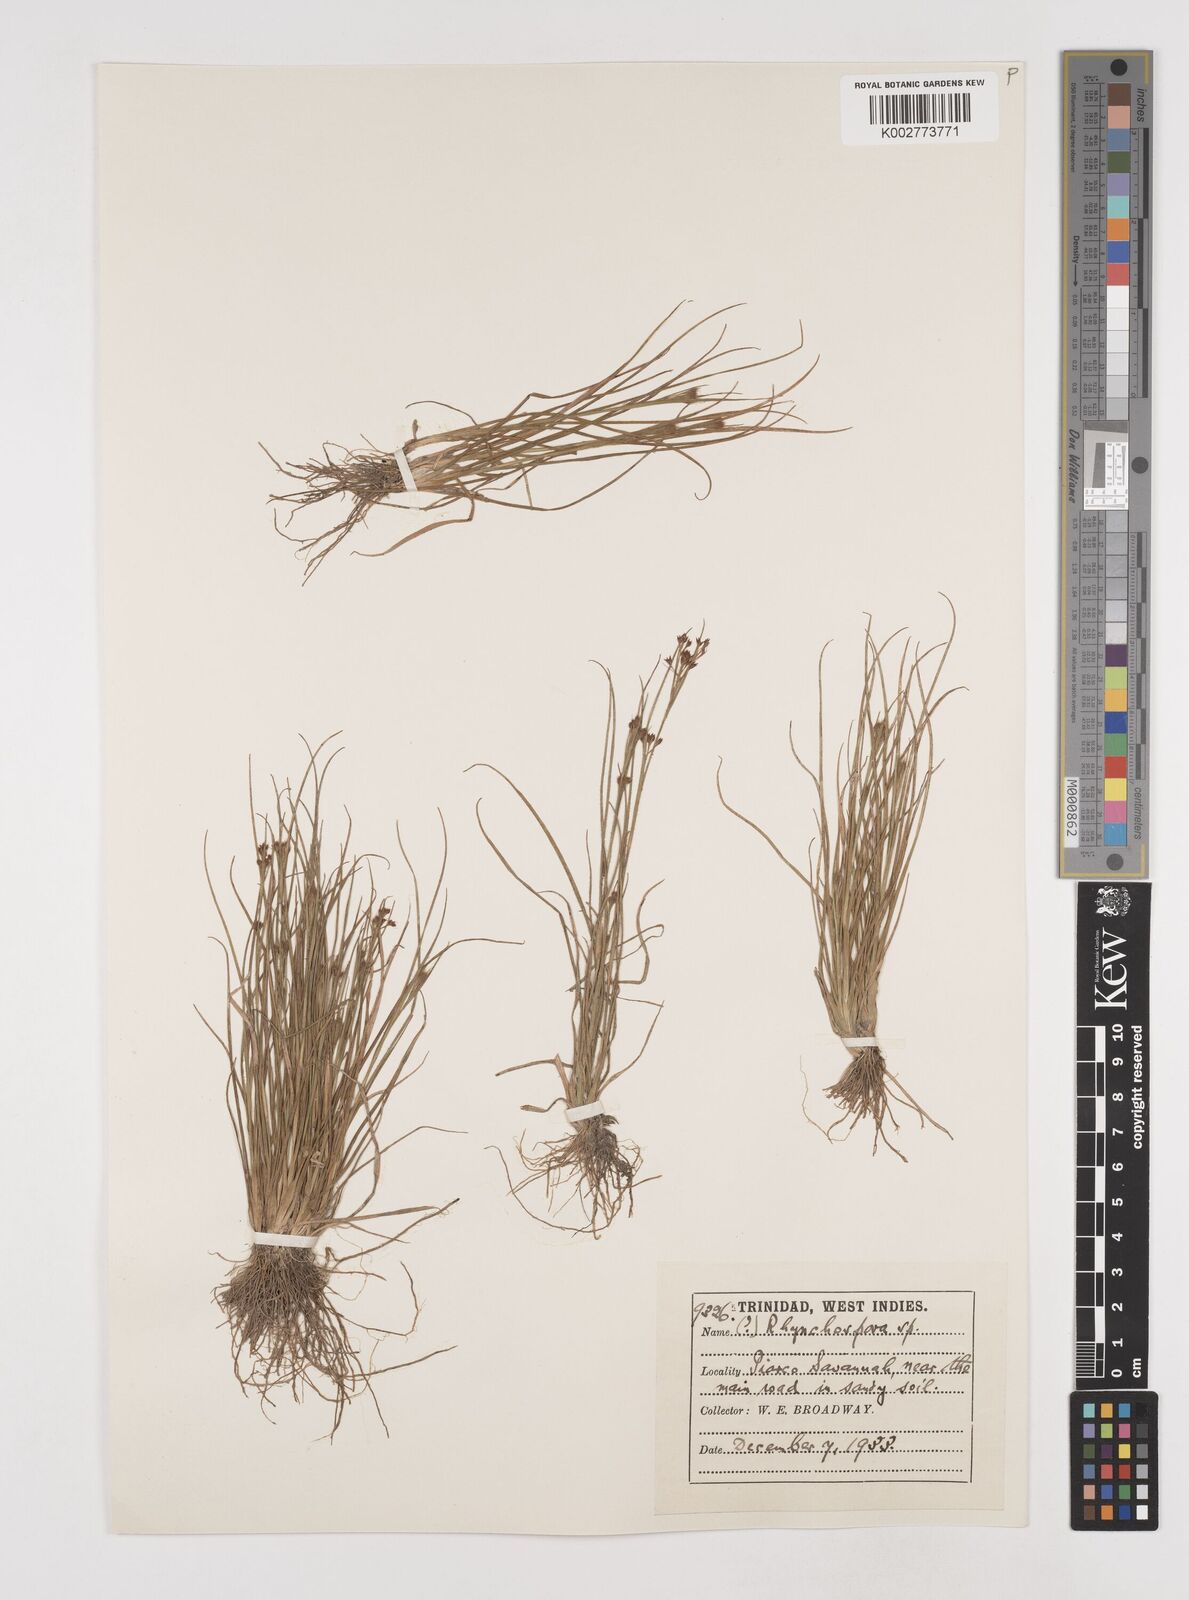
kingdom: Plantae
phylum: Tracheophyta
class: Liliopsida
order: Poales
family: Cyperaceae
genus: Rhynchospora
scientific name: Rhynchospora hirsuta
